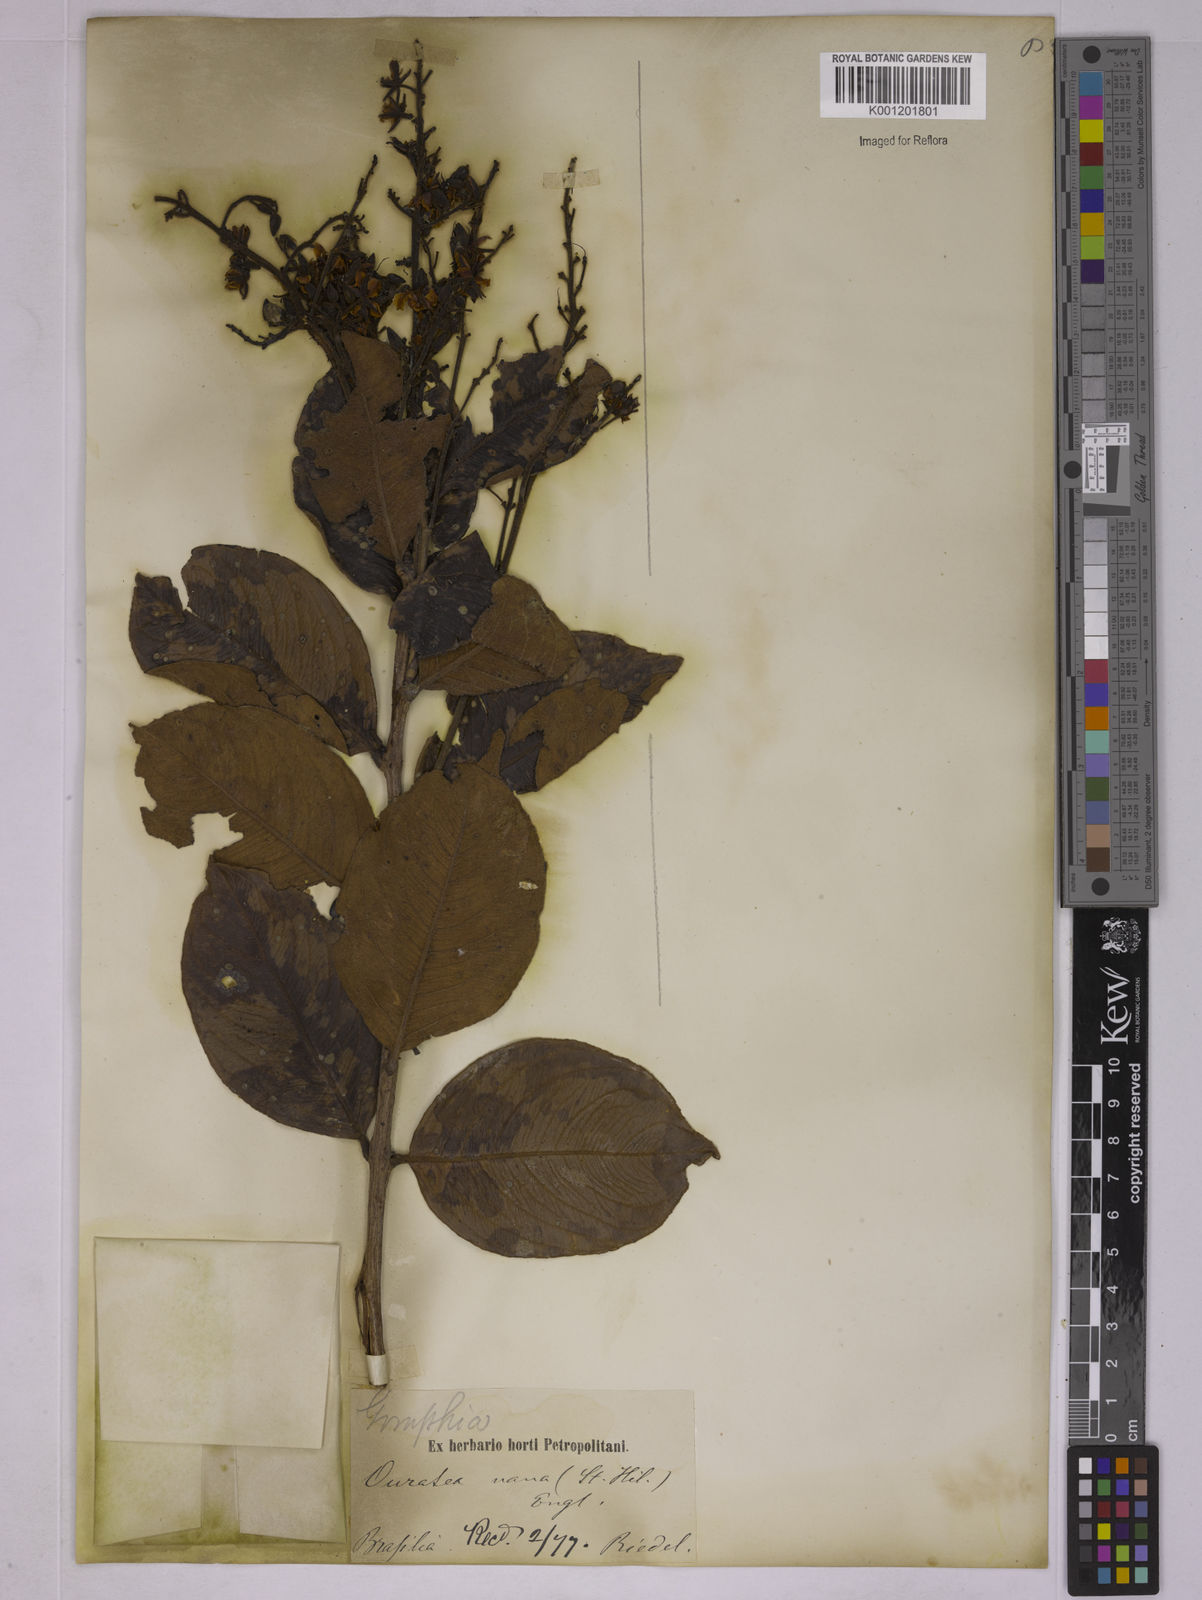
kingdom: Plantae
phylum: Tracheophyta
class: Magnoliopsida
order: Malpighiales
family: Ochnaceae
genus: Ouratea
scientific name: Ouratea nana
